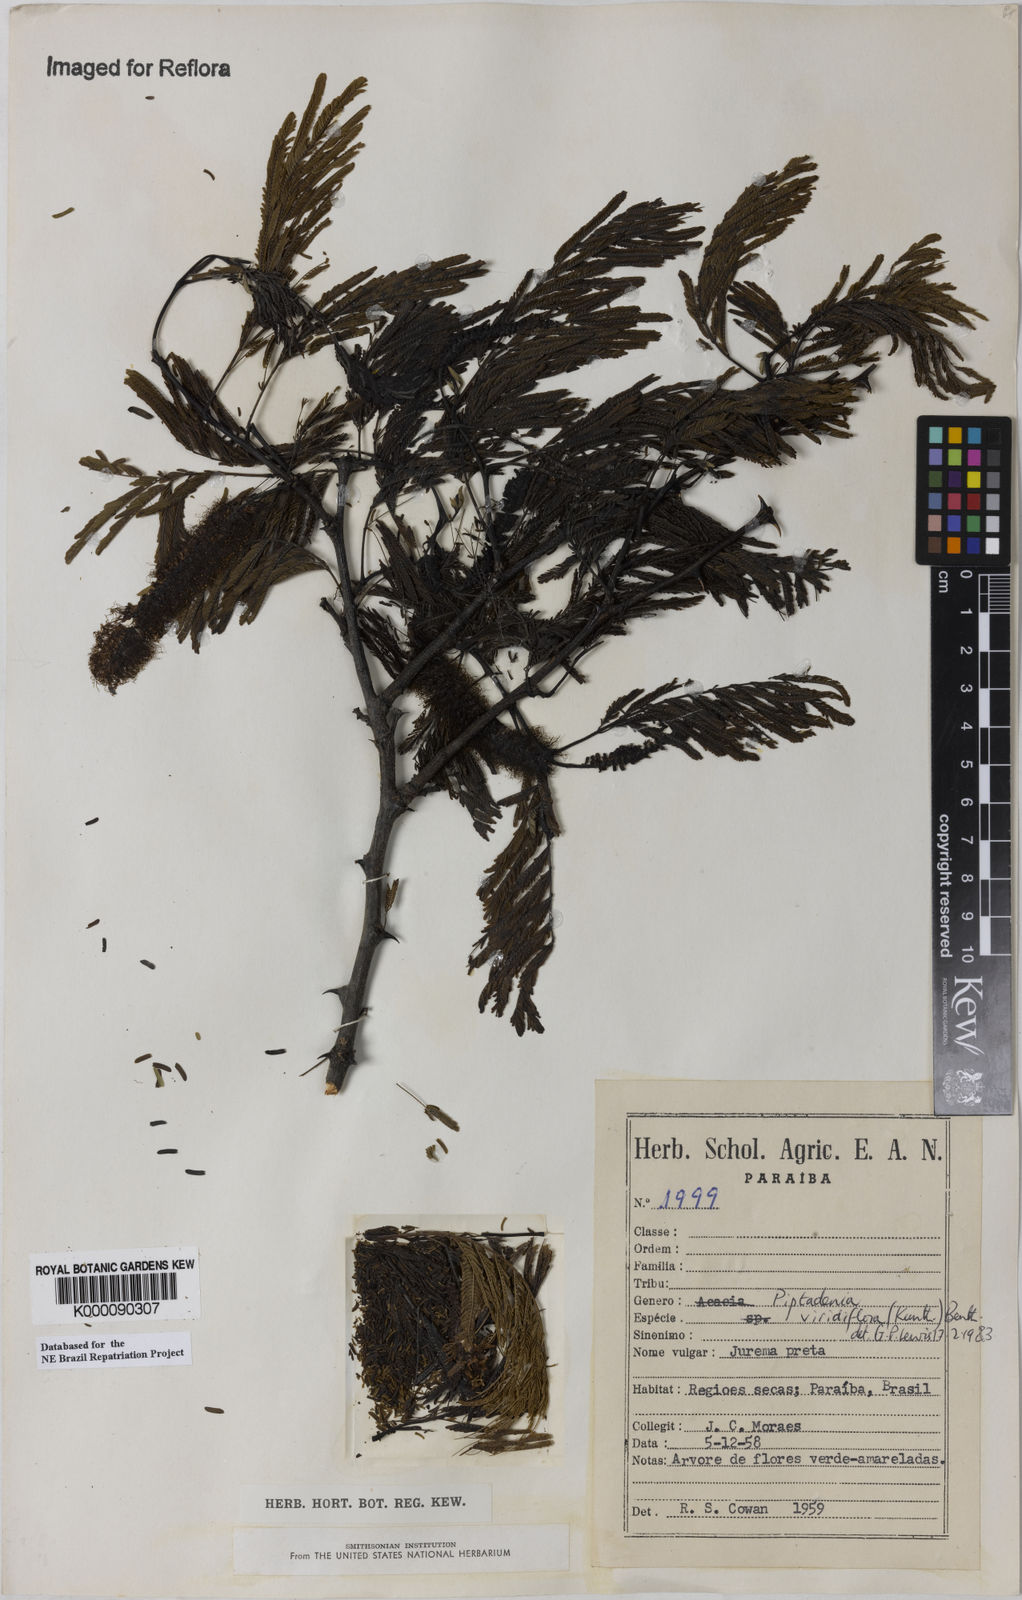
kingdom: Plantae
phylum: Tracheophyta
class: Magnoliopsida
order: Fabales
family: Fabaceae
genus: Lachesiodendron
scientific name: Lachesiodendron viridiflorum
